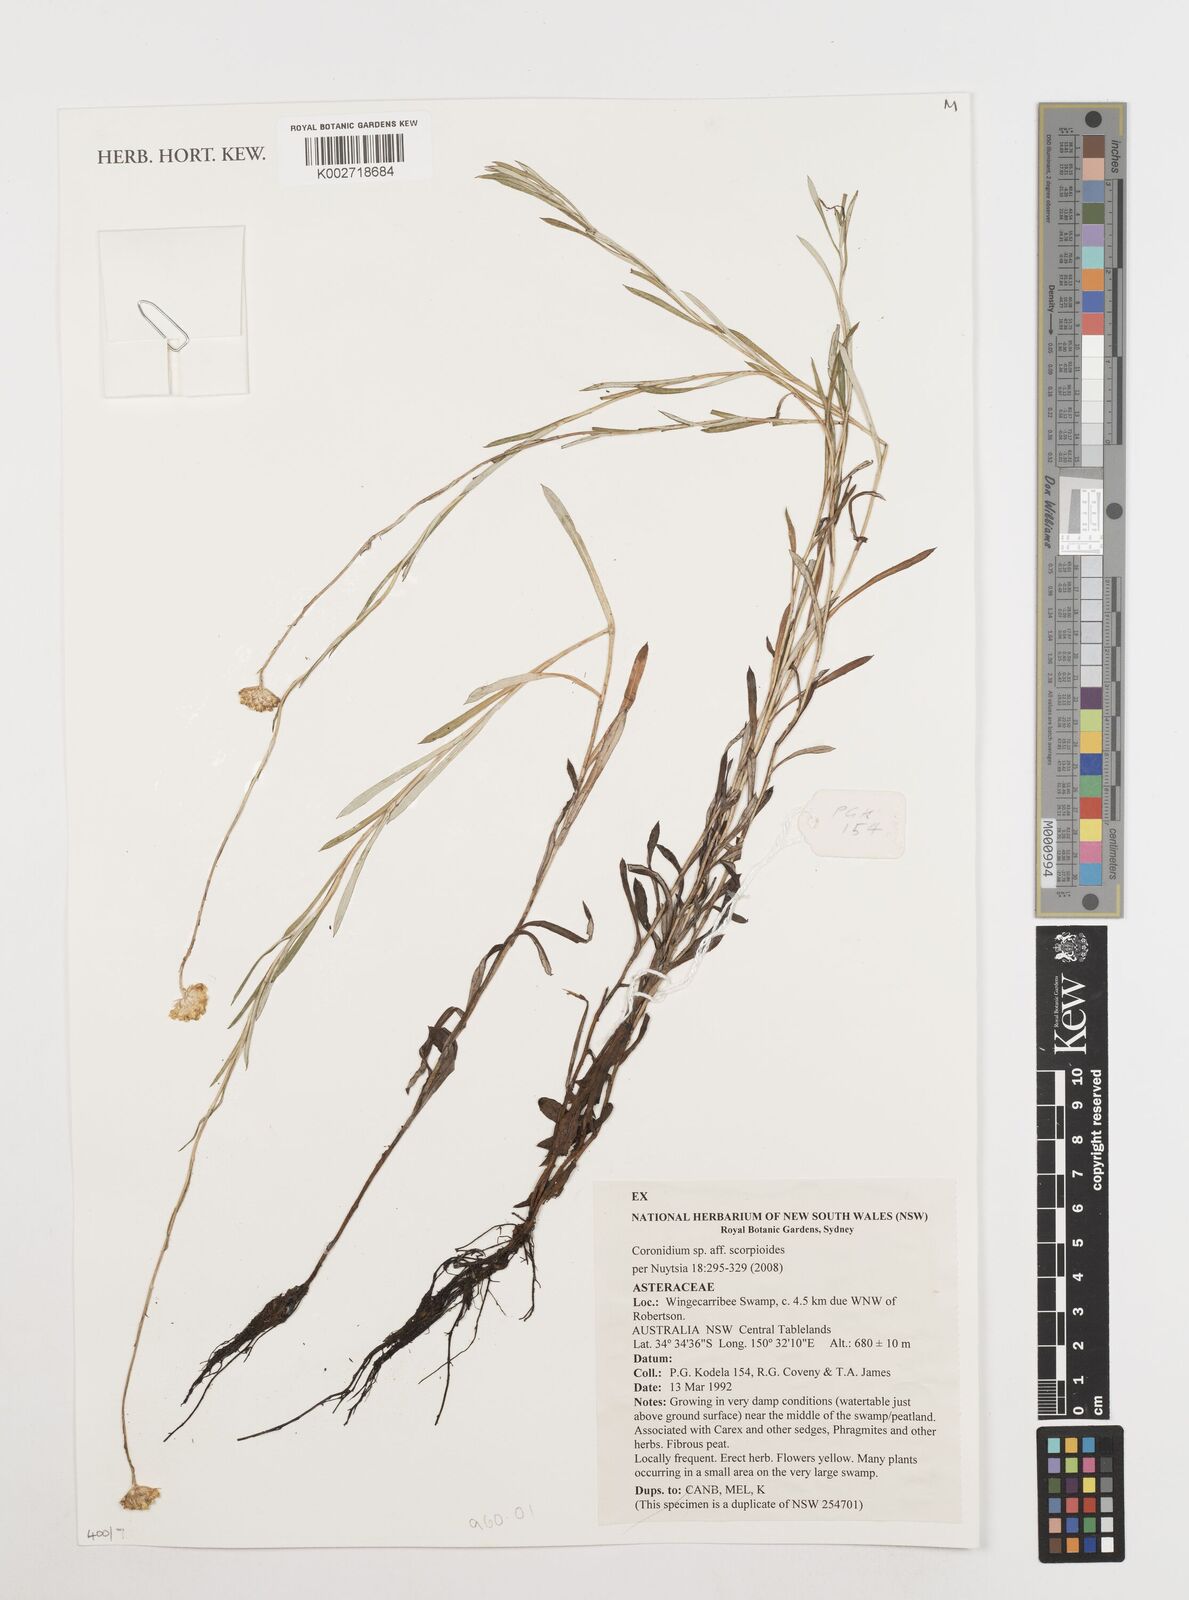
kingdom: Plantae
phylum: Tracheophyta
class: Magnoliopsida
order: Asterales
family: Asteraceae
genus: Coronidium
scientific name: Coronidium scorpioides
